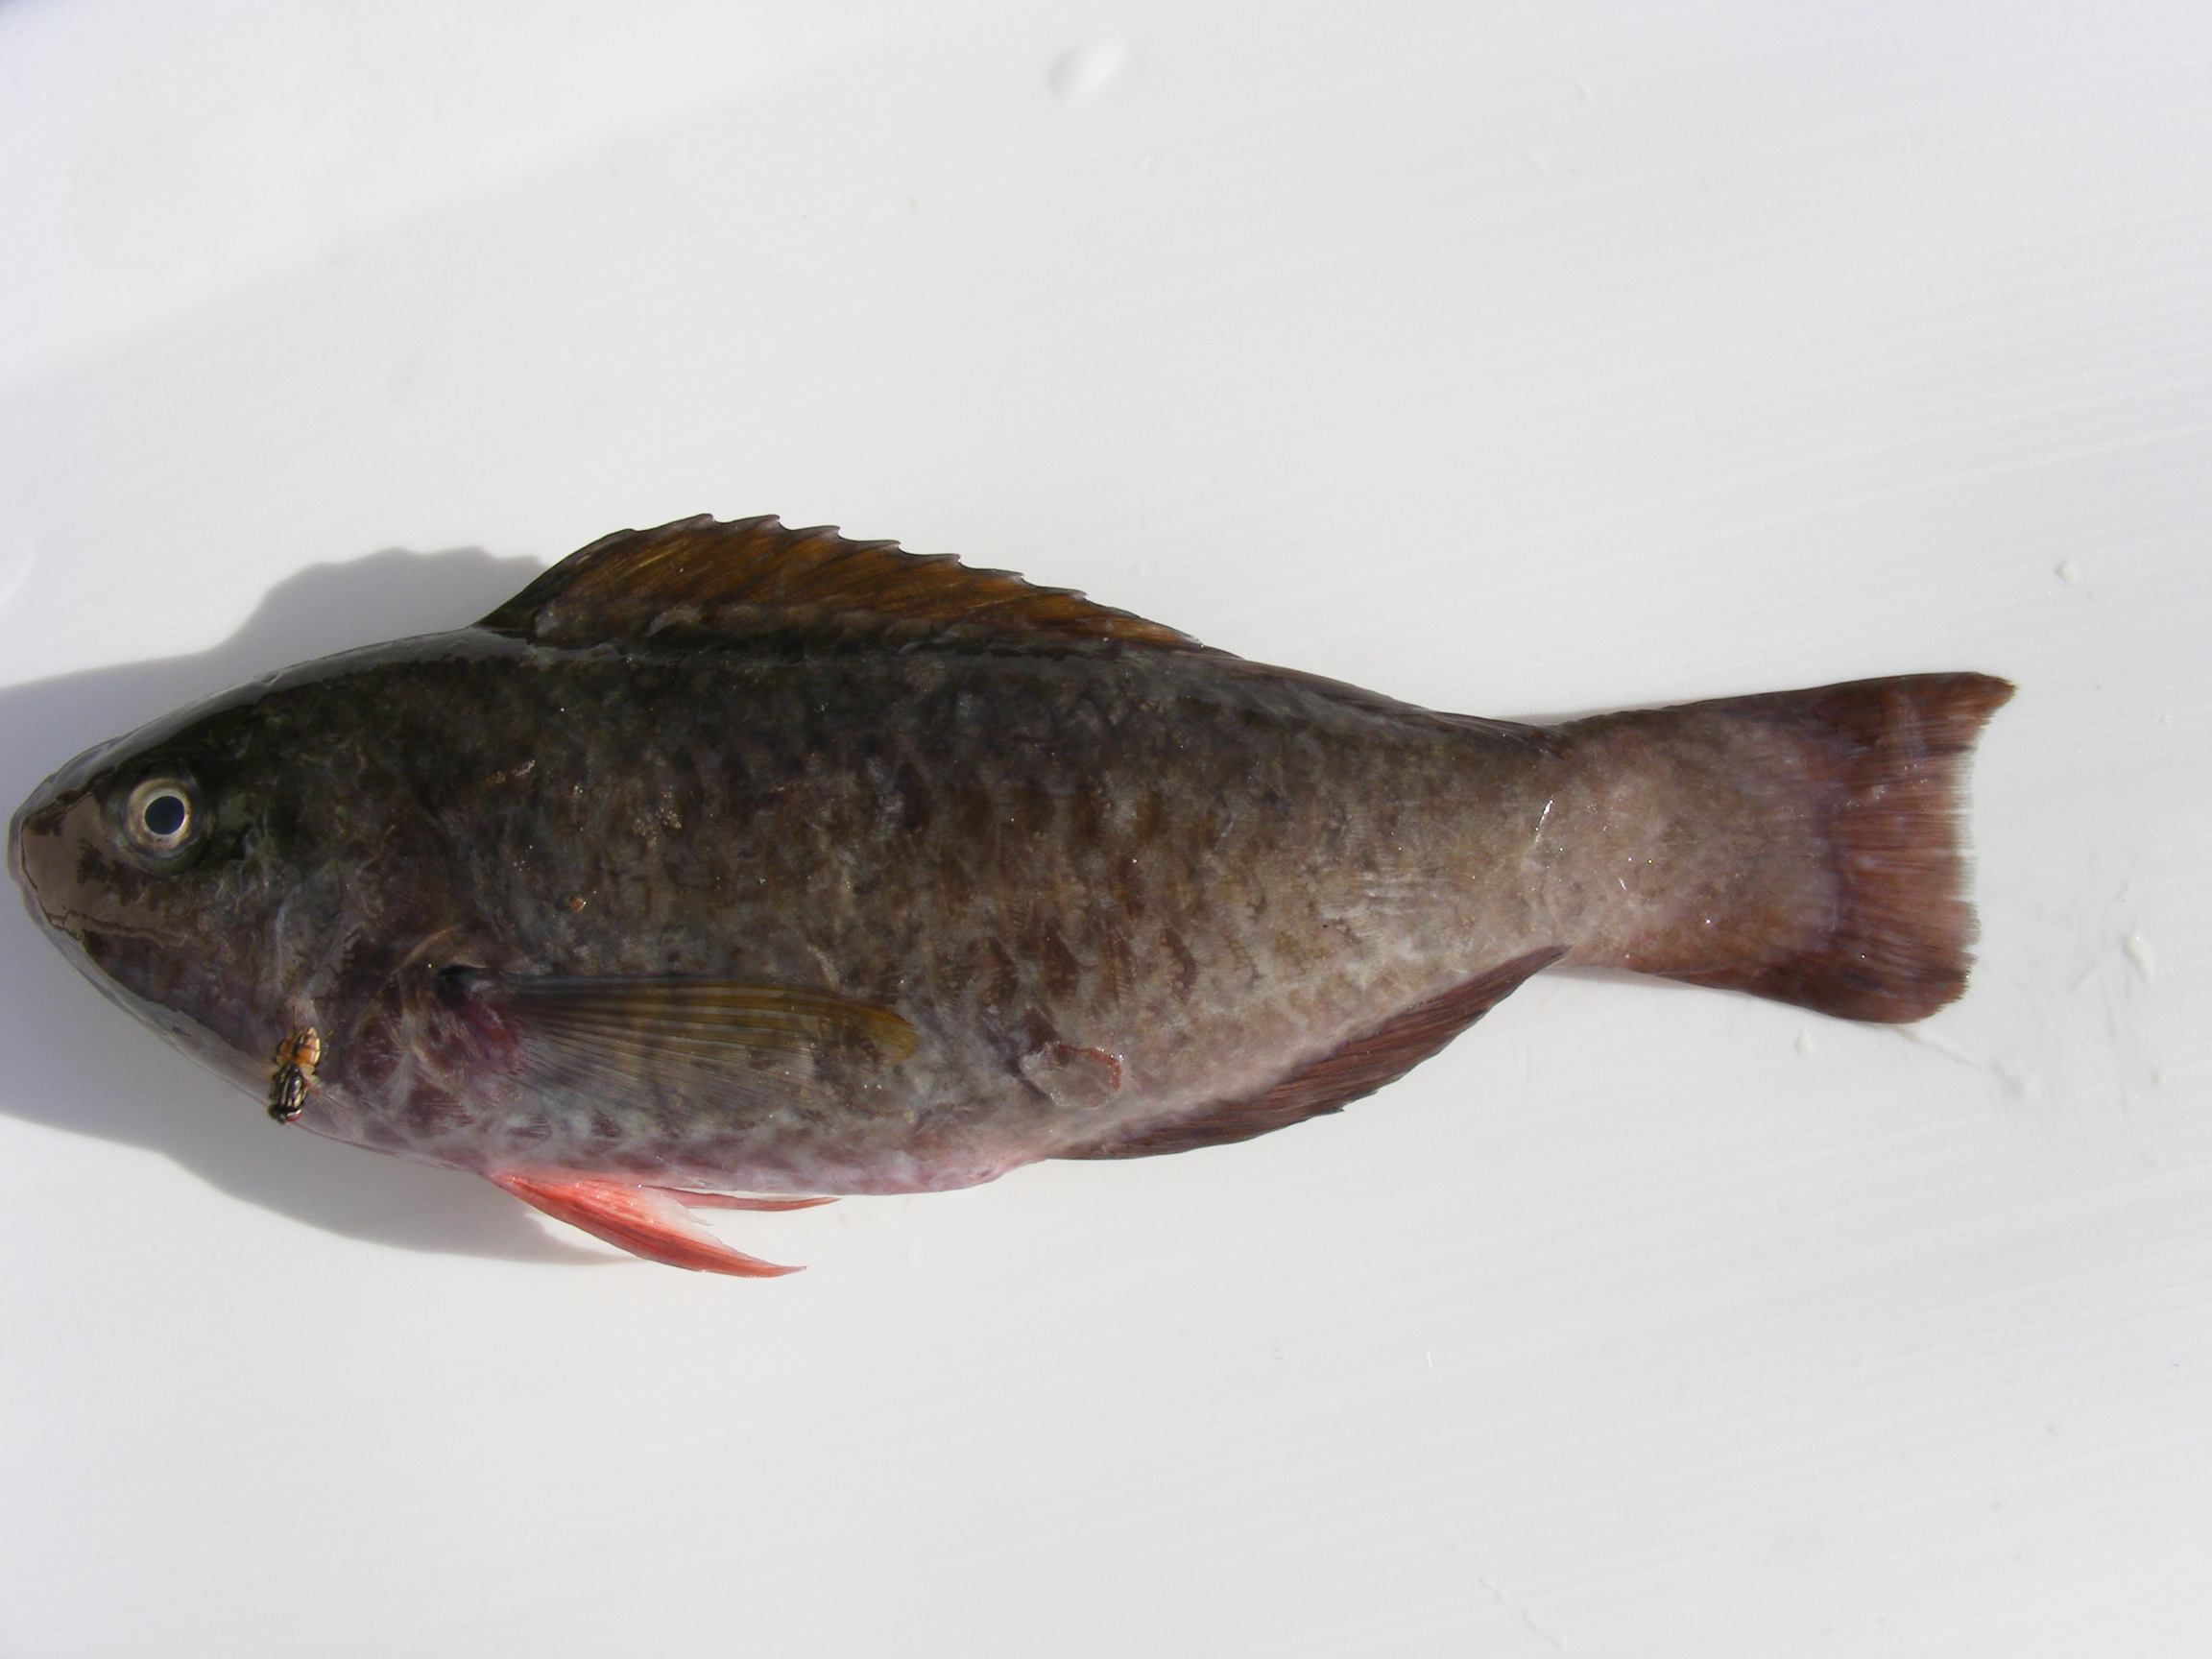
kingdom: Animalia
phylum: Chordata
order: Perciformes
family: Scaridae
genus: Scarus
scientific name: Scarus russelii
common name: Eclipse parrotfish
